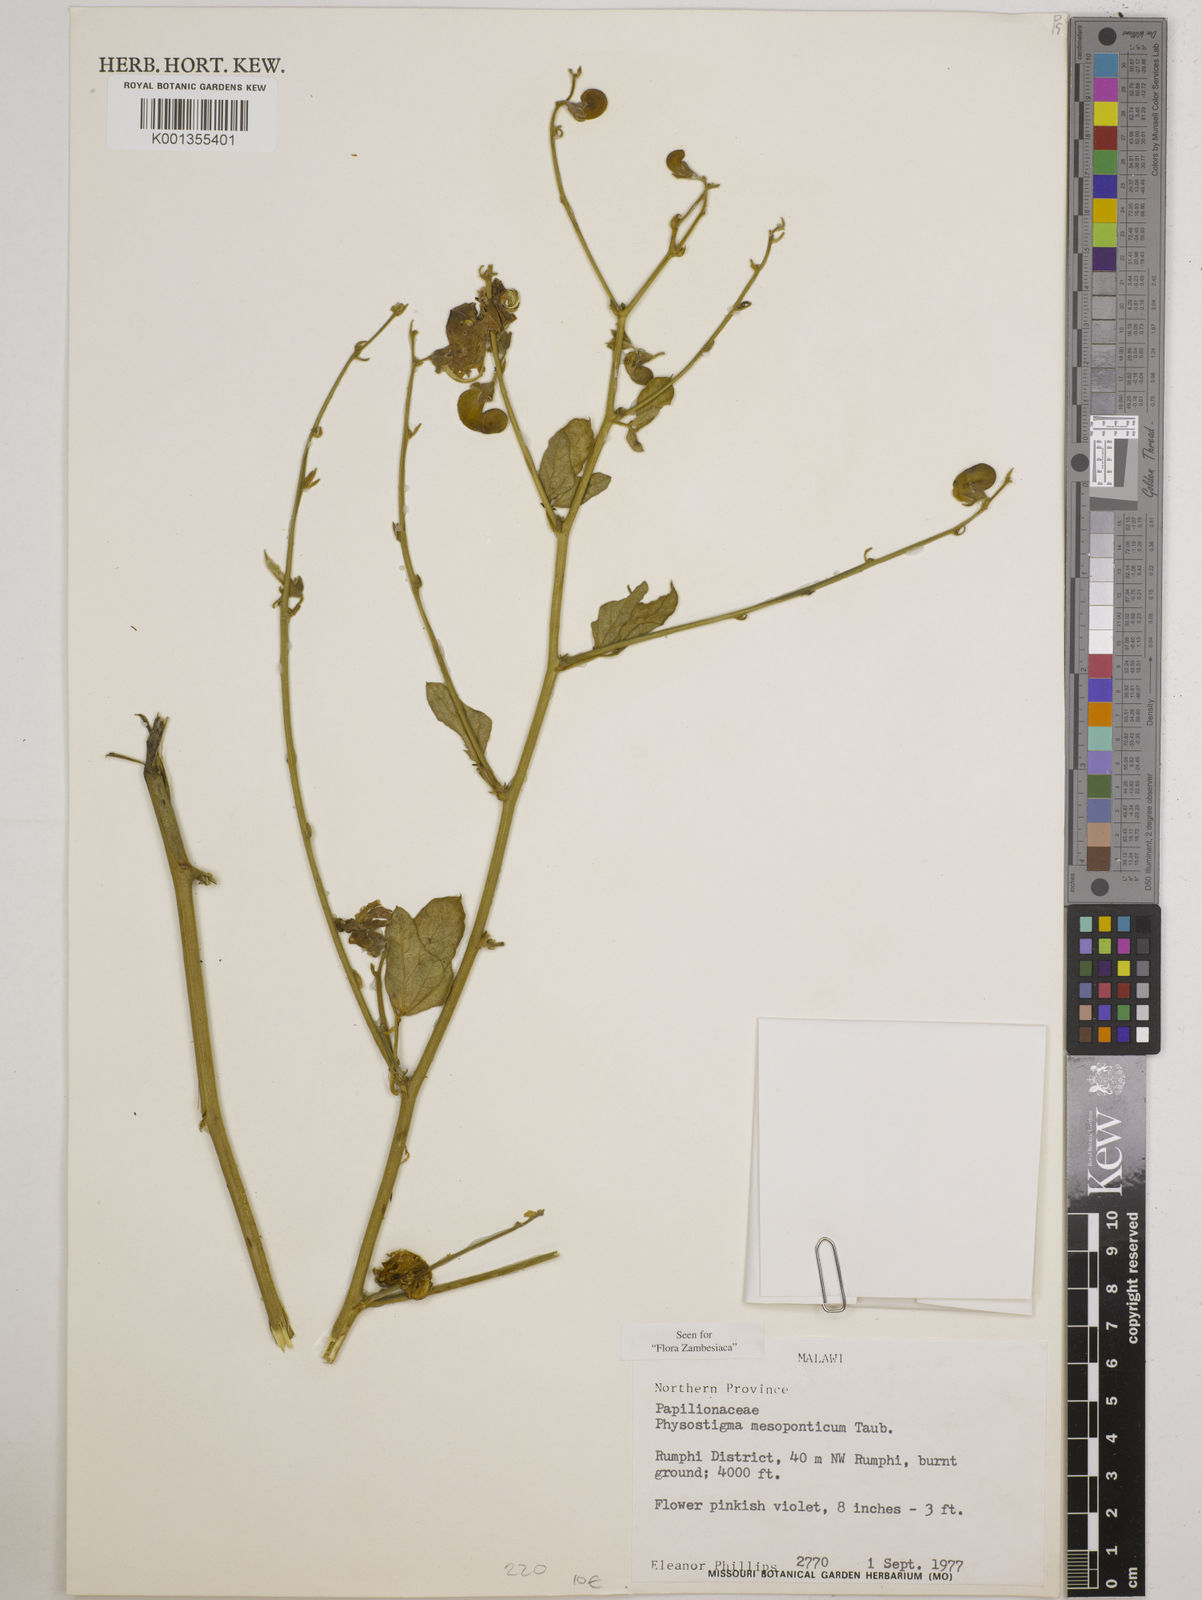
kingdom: Plantae
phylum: Tracheophyta
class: Magnoliopsida
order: Fabales
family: Fabaceae
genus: Physostigma
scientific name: Physostigma mesoponticum
